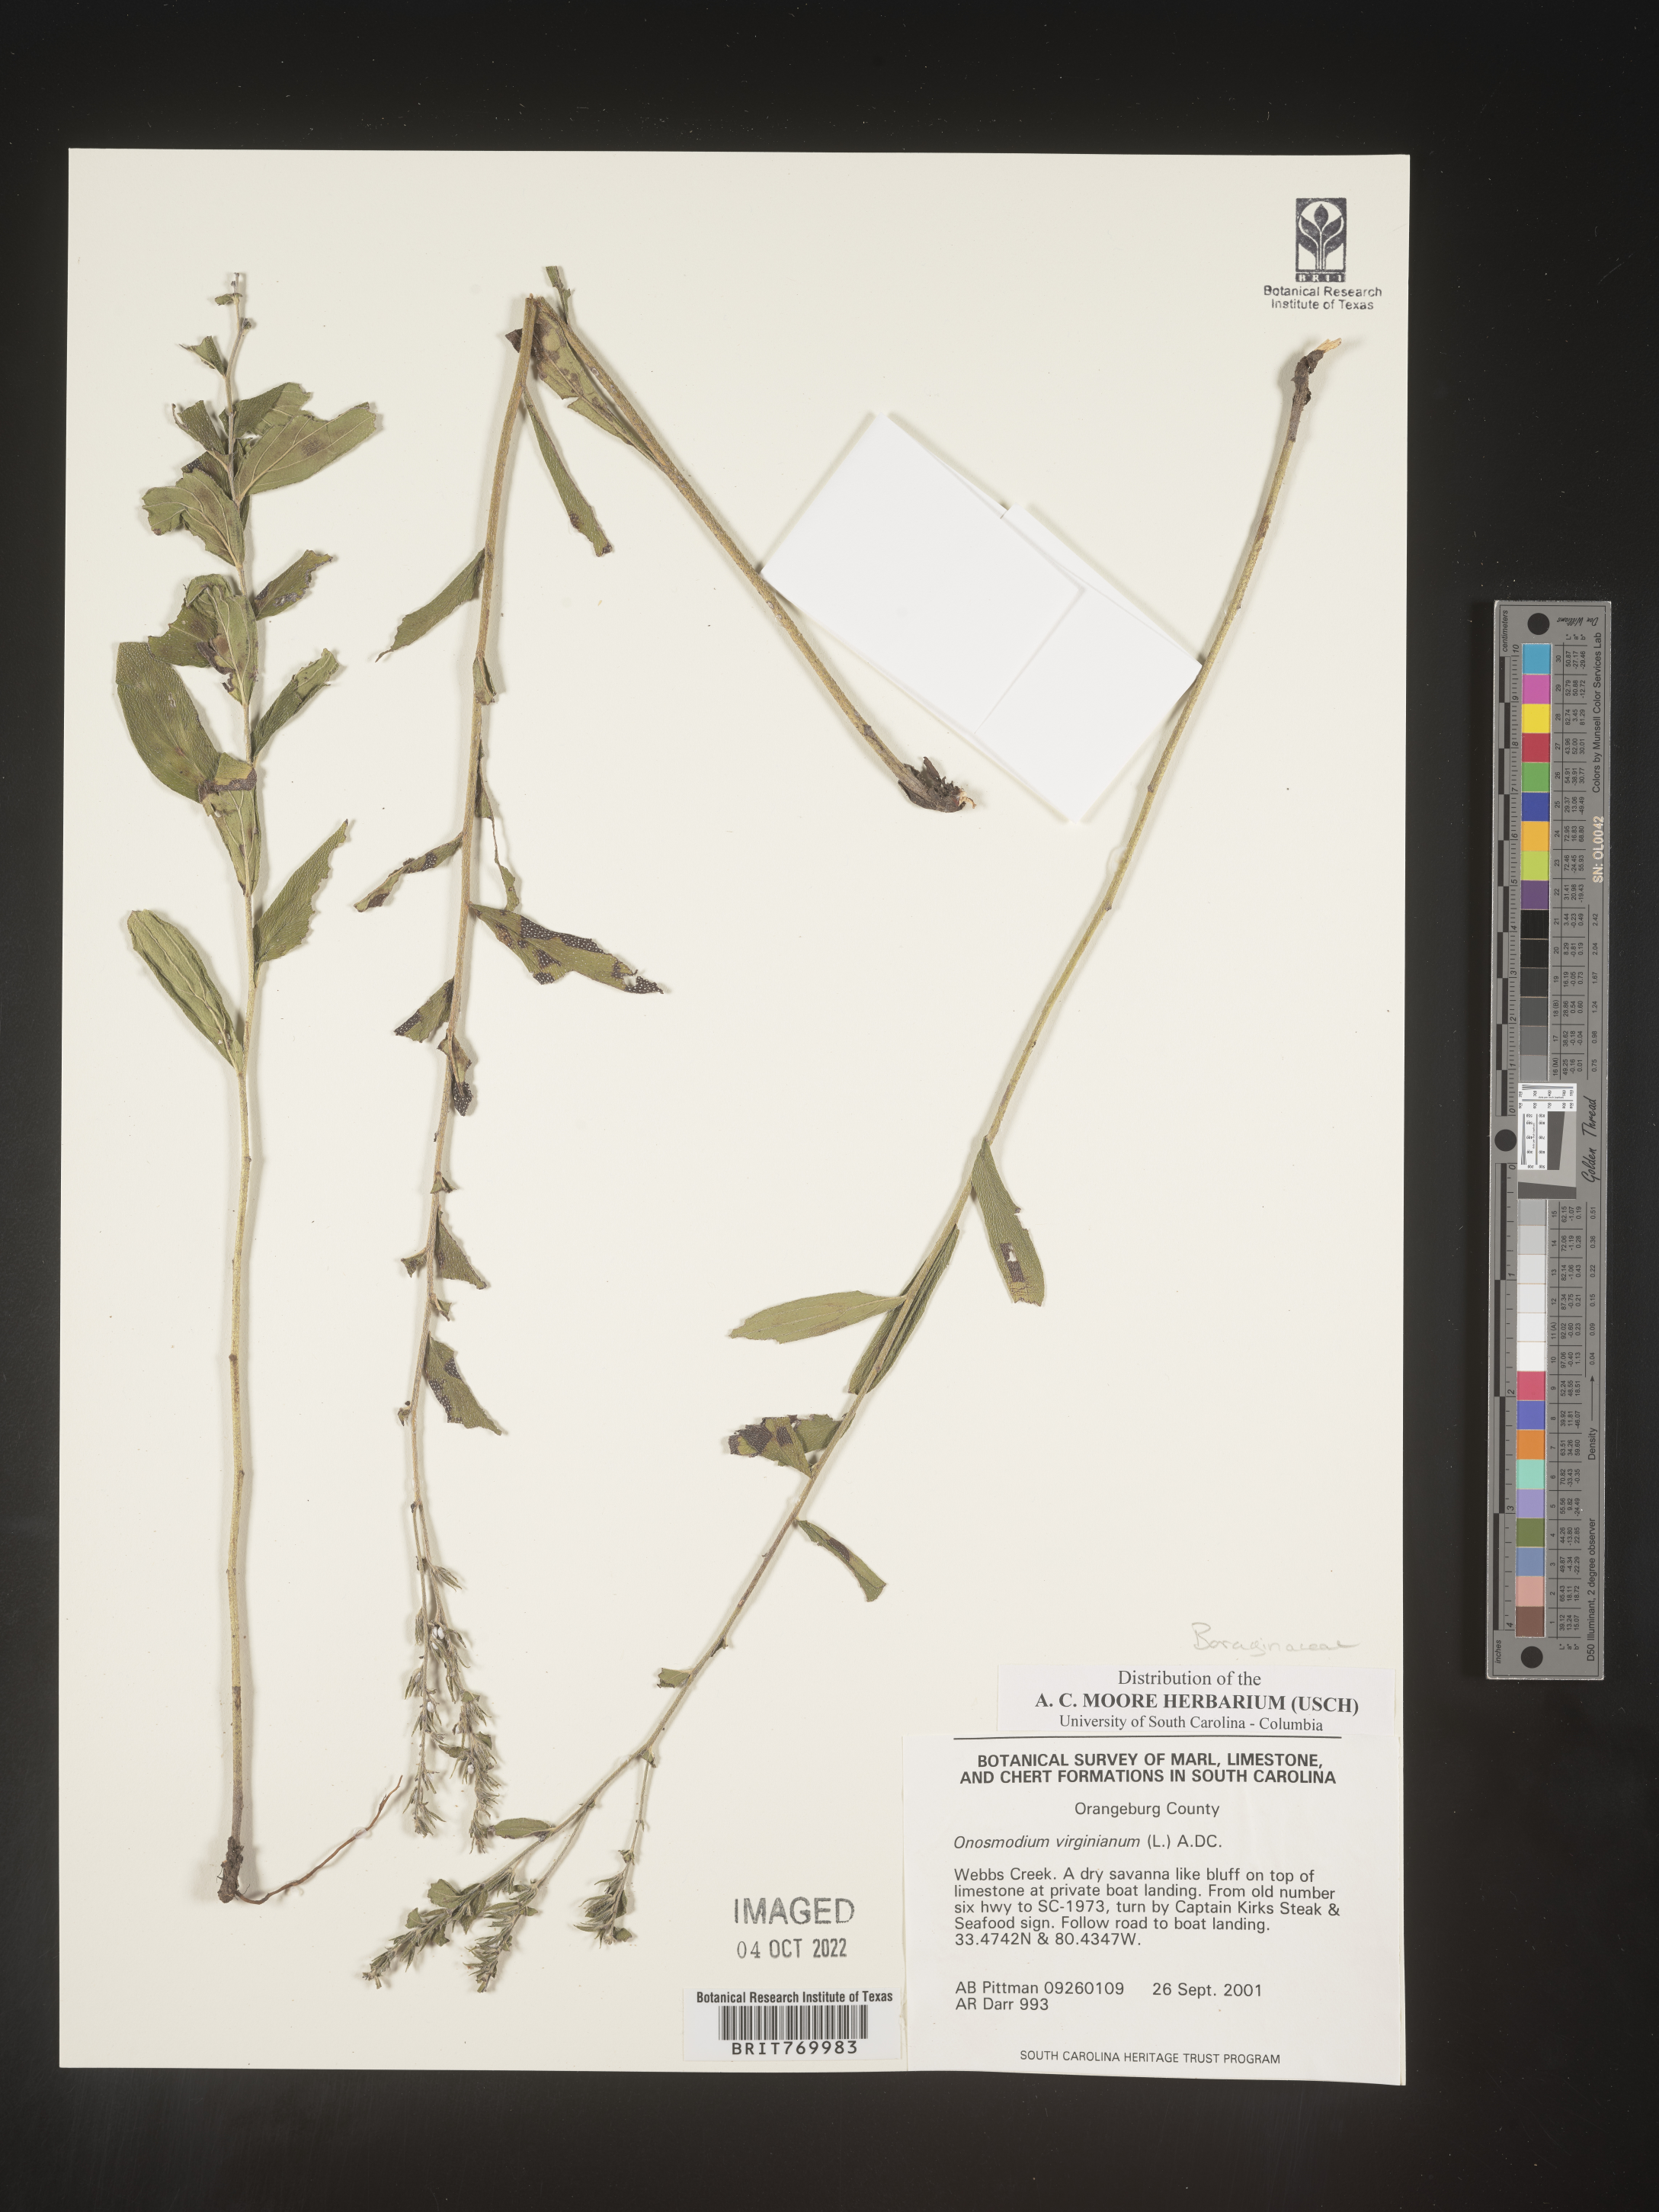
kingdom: Plantae
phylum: Tracheophyta
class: Magnoliopsida
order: Boraginales
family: Boraginaceae
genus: Lithospermum
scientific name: Lithospermum virginianum
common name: Eastern false gromwell
